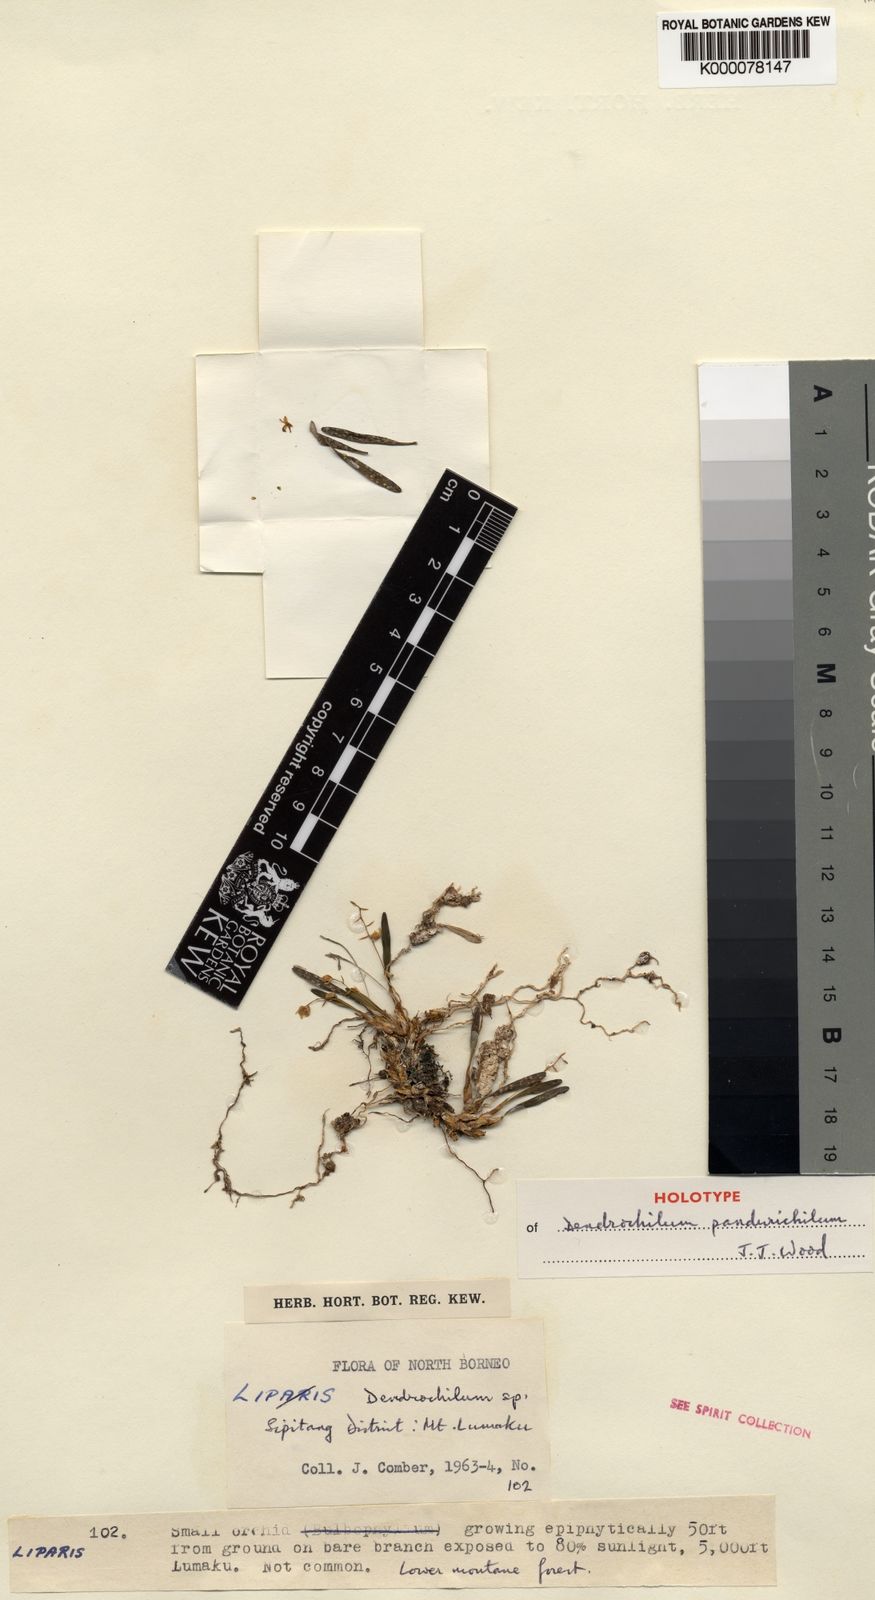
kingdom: Plantae
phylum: Tracheophyta
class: Liliopsida
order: Asparagales
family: Orchidaceae
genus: Coelogyne
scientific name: Coelogyne pandurichila
